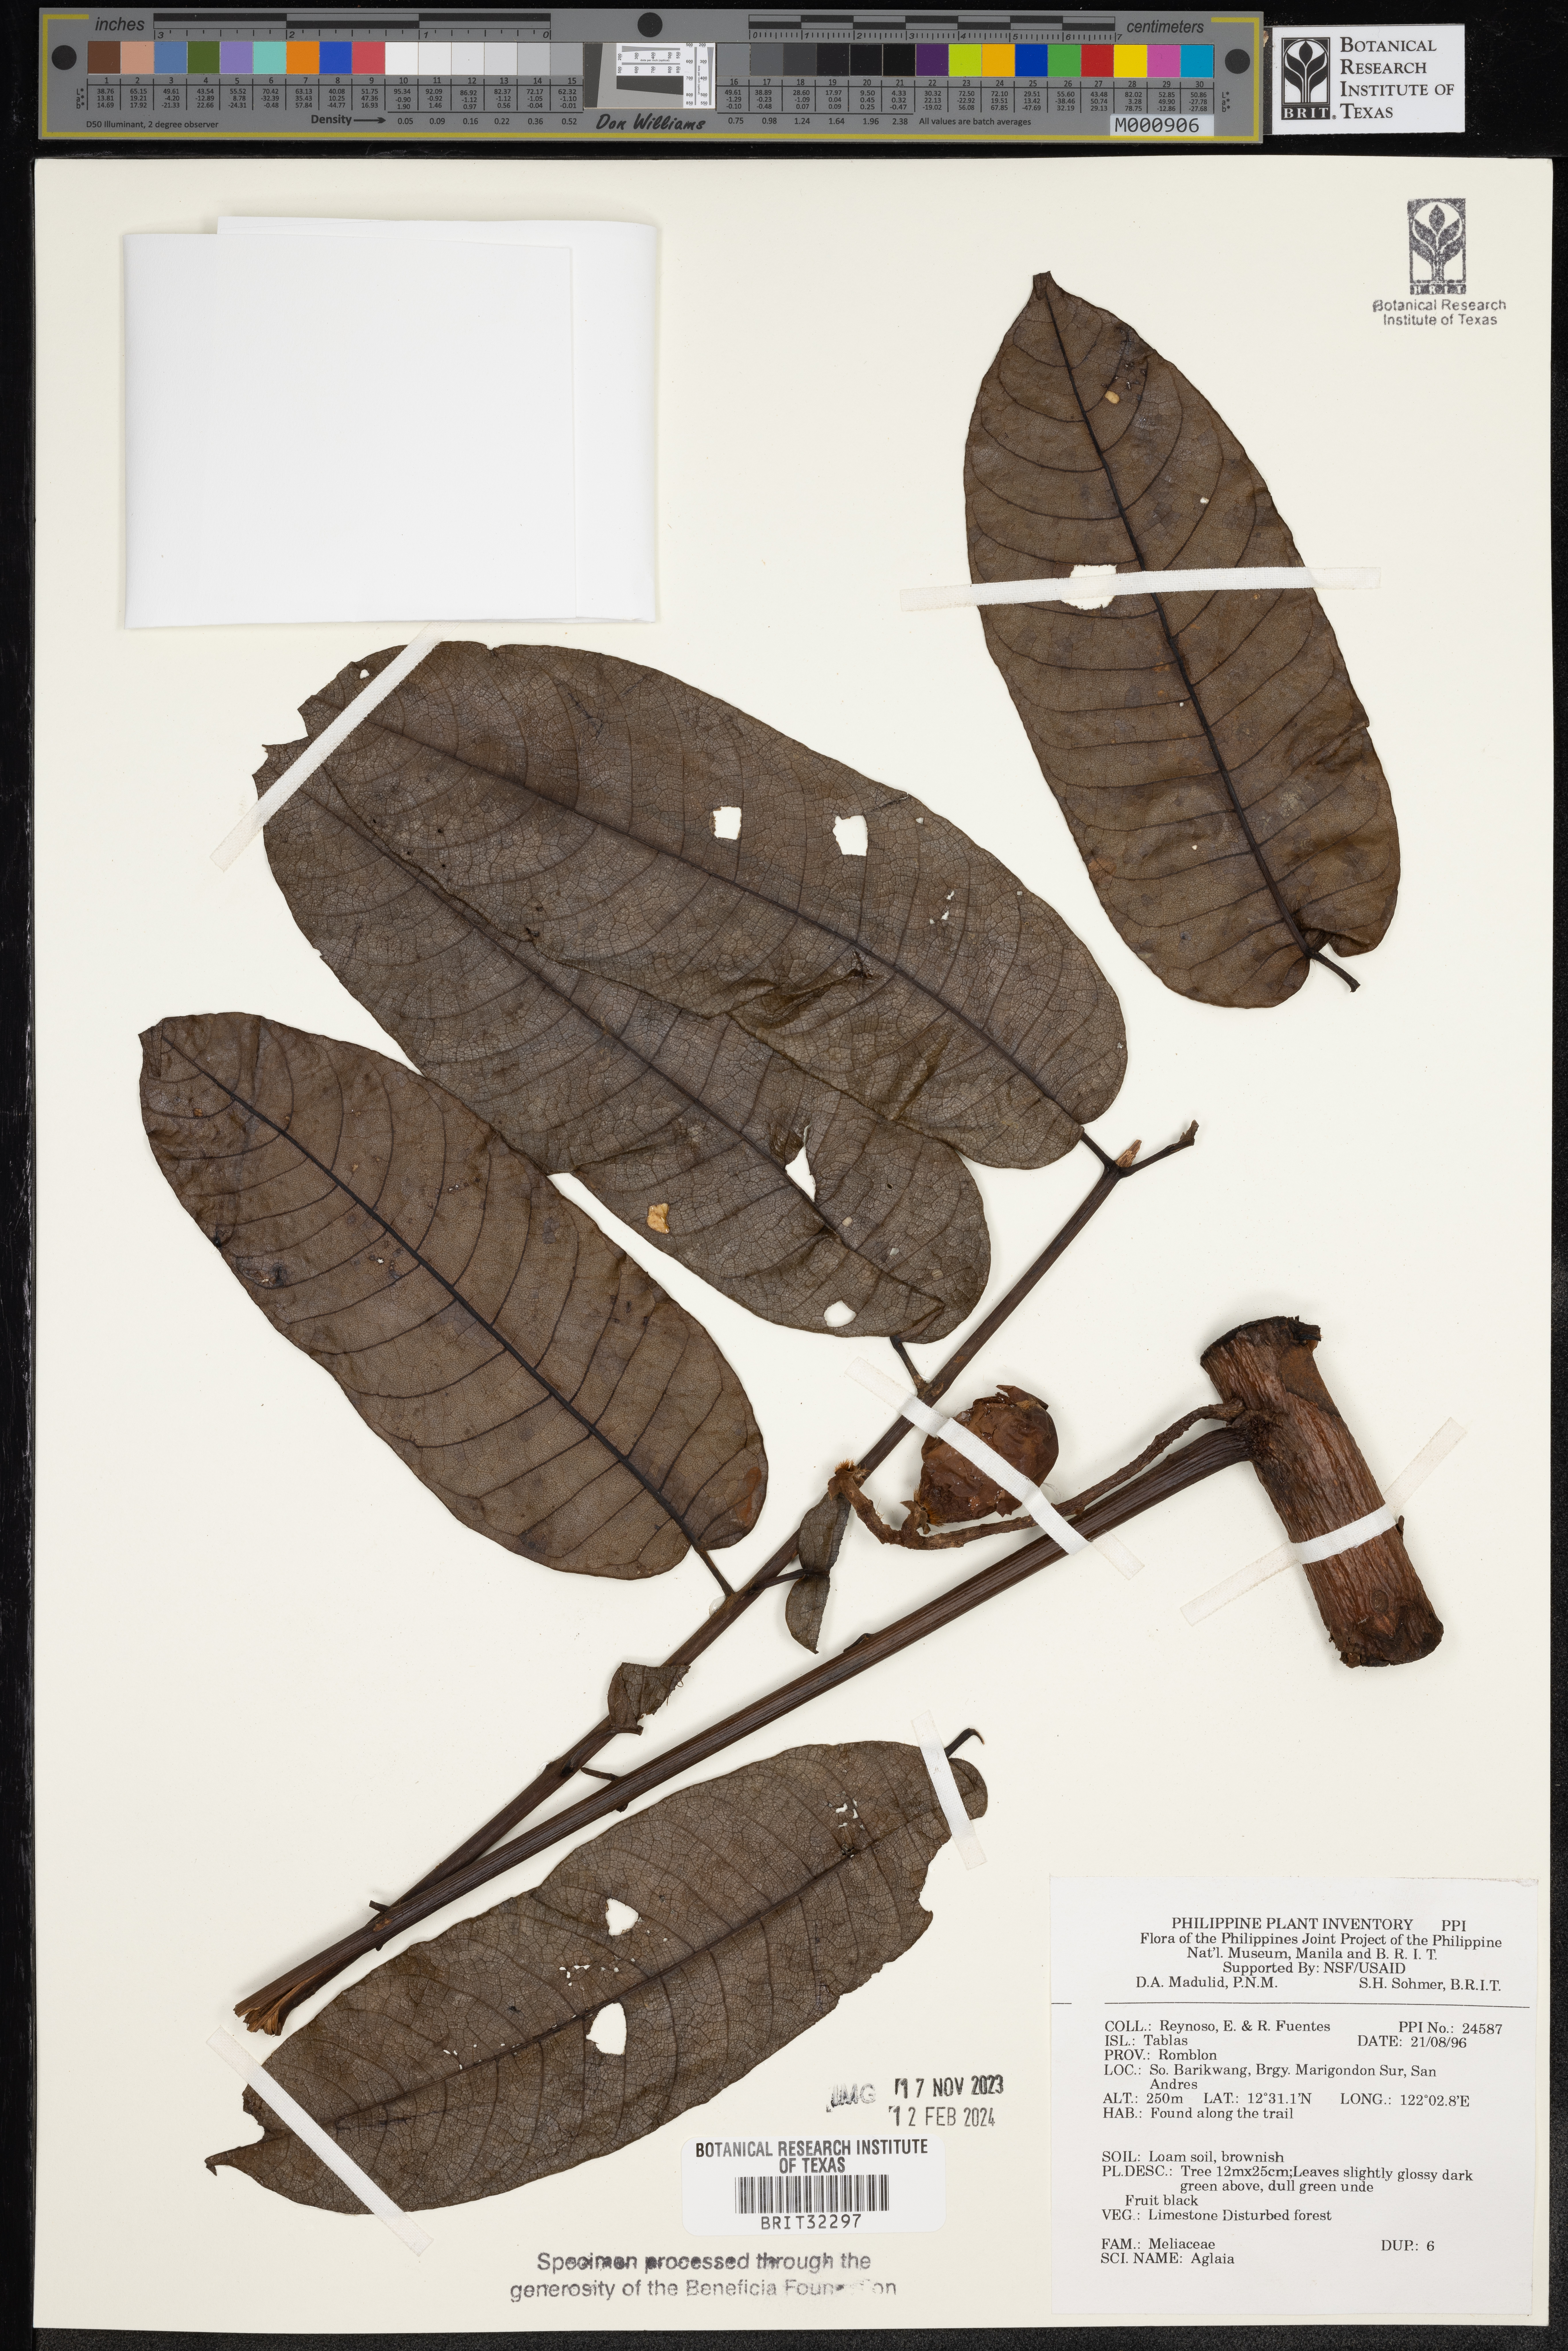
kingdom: Plantae
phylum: Tracheophyta
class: Magnoliopsida
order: Sapindales
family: Meliaceae
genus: Aglaia
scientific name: Aglaia
